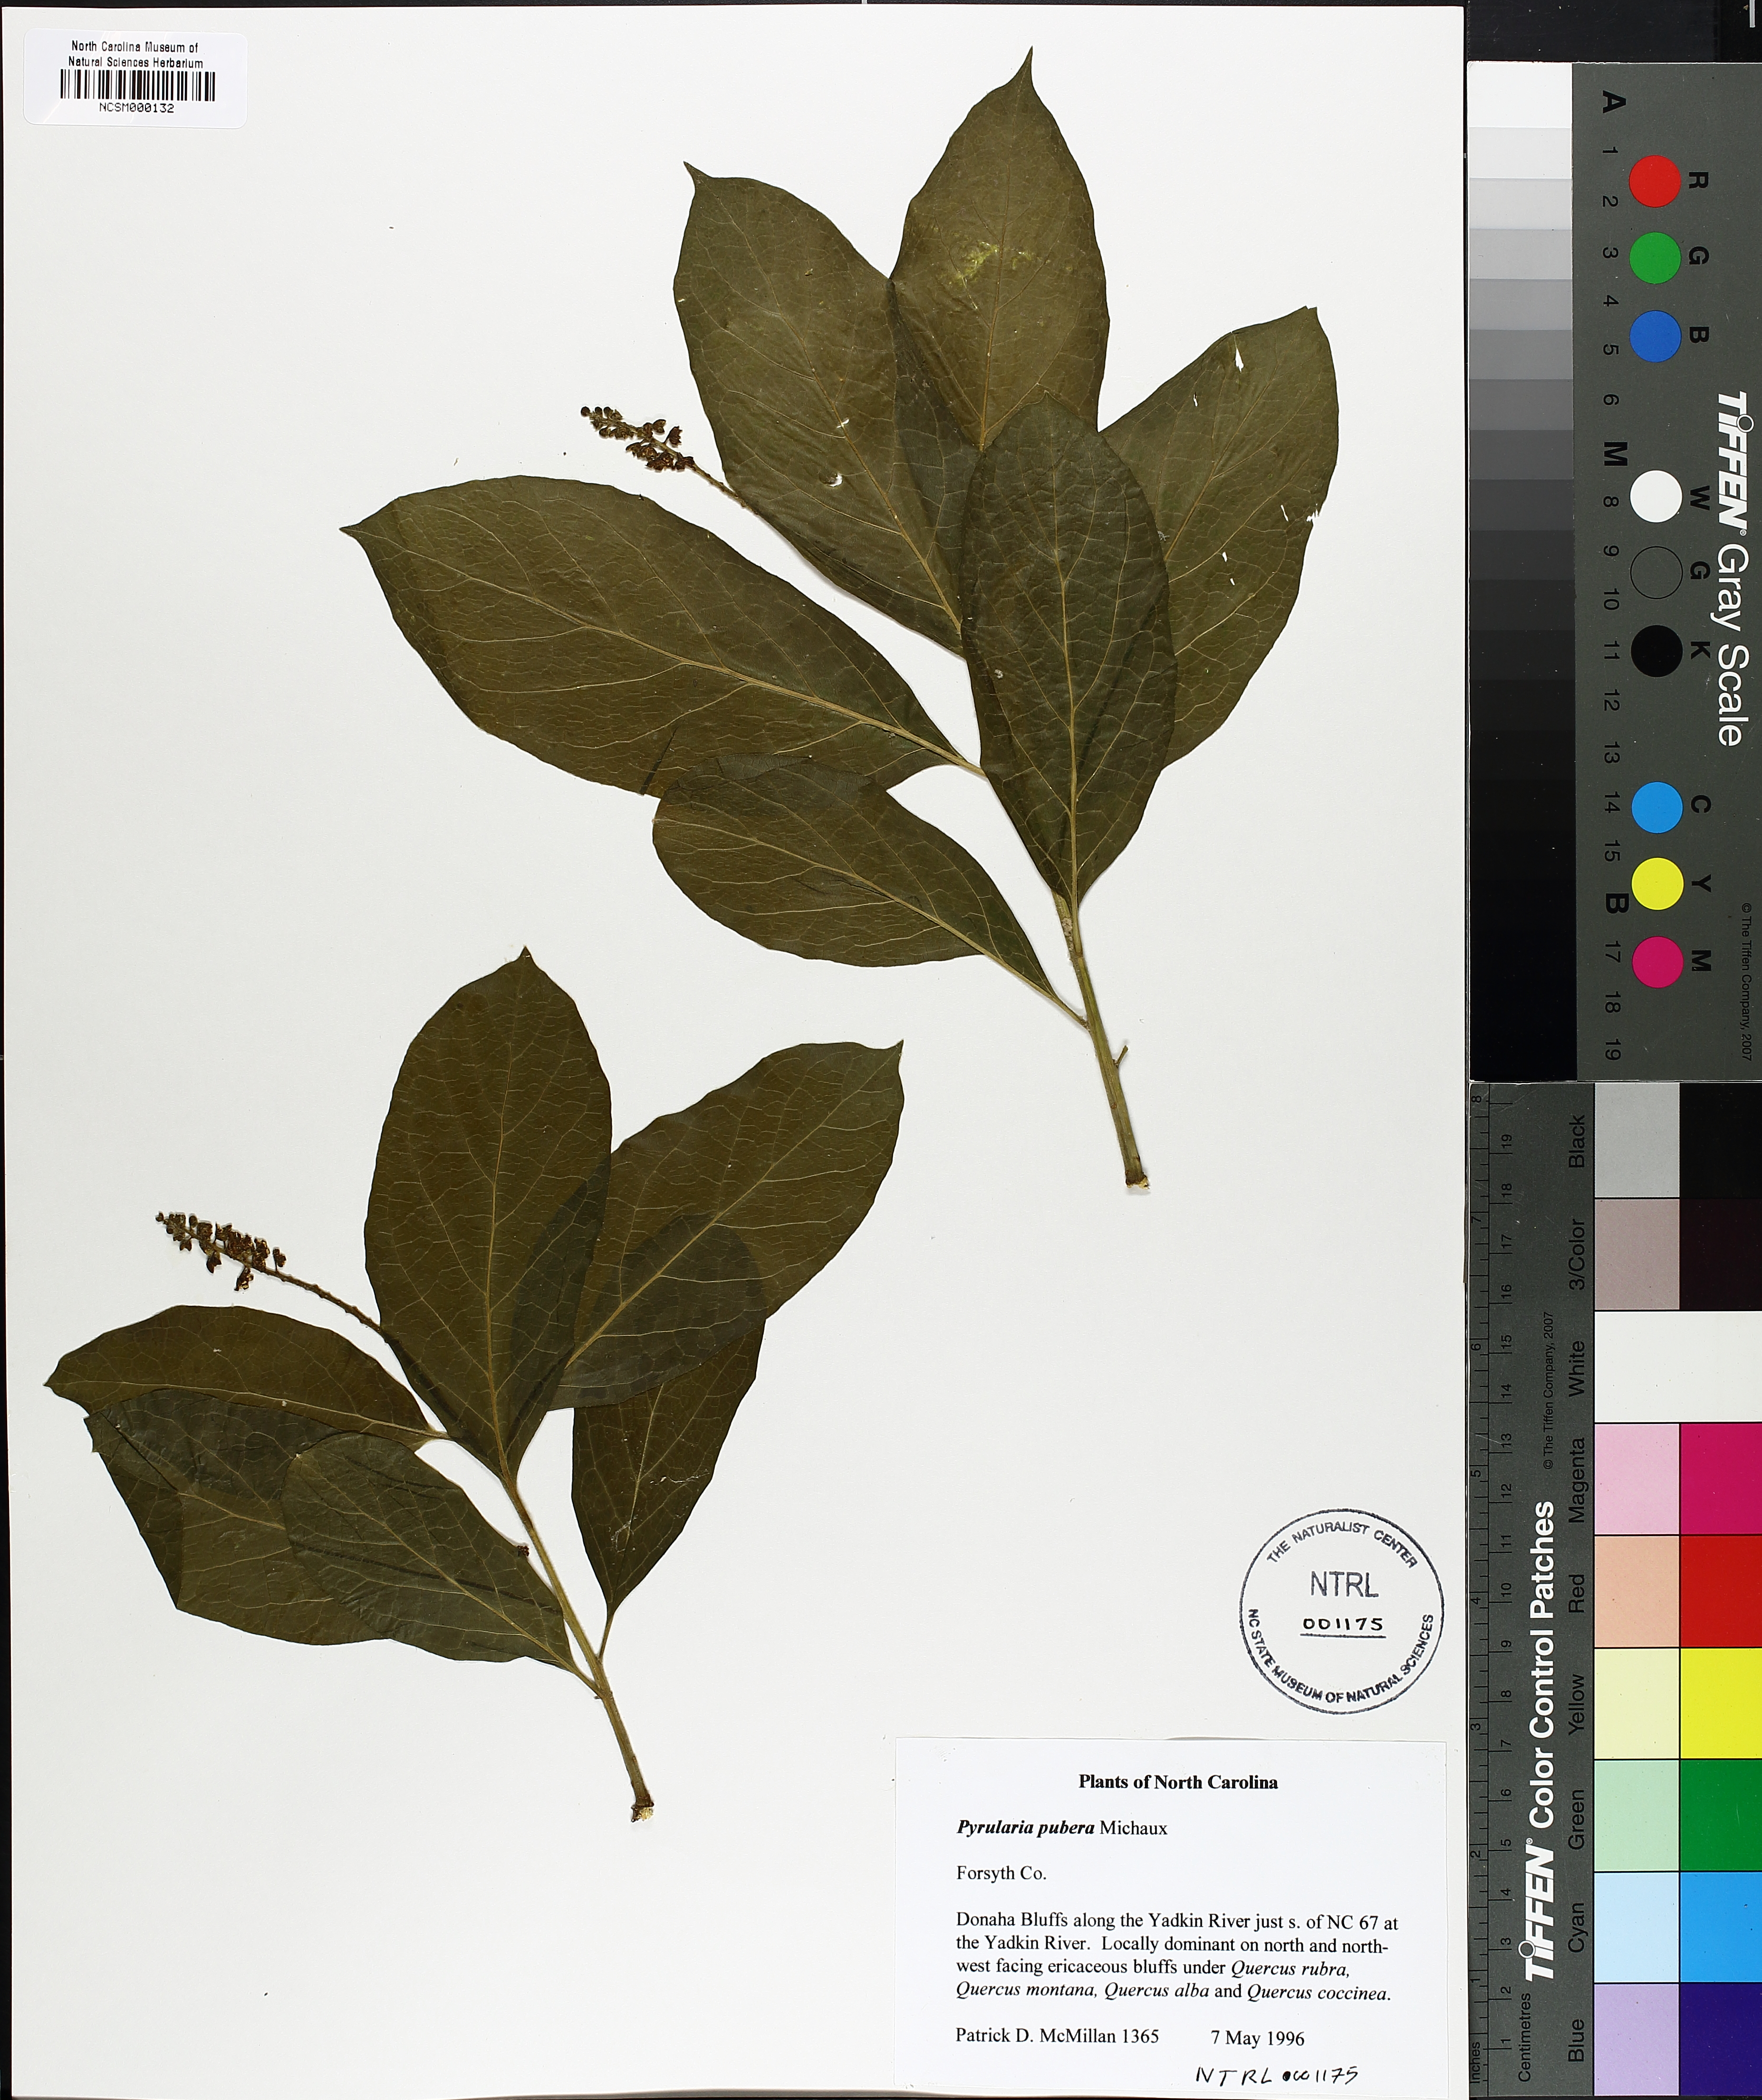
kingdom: Plantae
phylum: Tracheophyta
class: Magnoliopsida
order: Santalales
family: Cervantesiaceae
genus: Pyrularia
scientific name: Pyrularia pubera
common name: Oilnut
